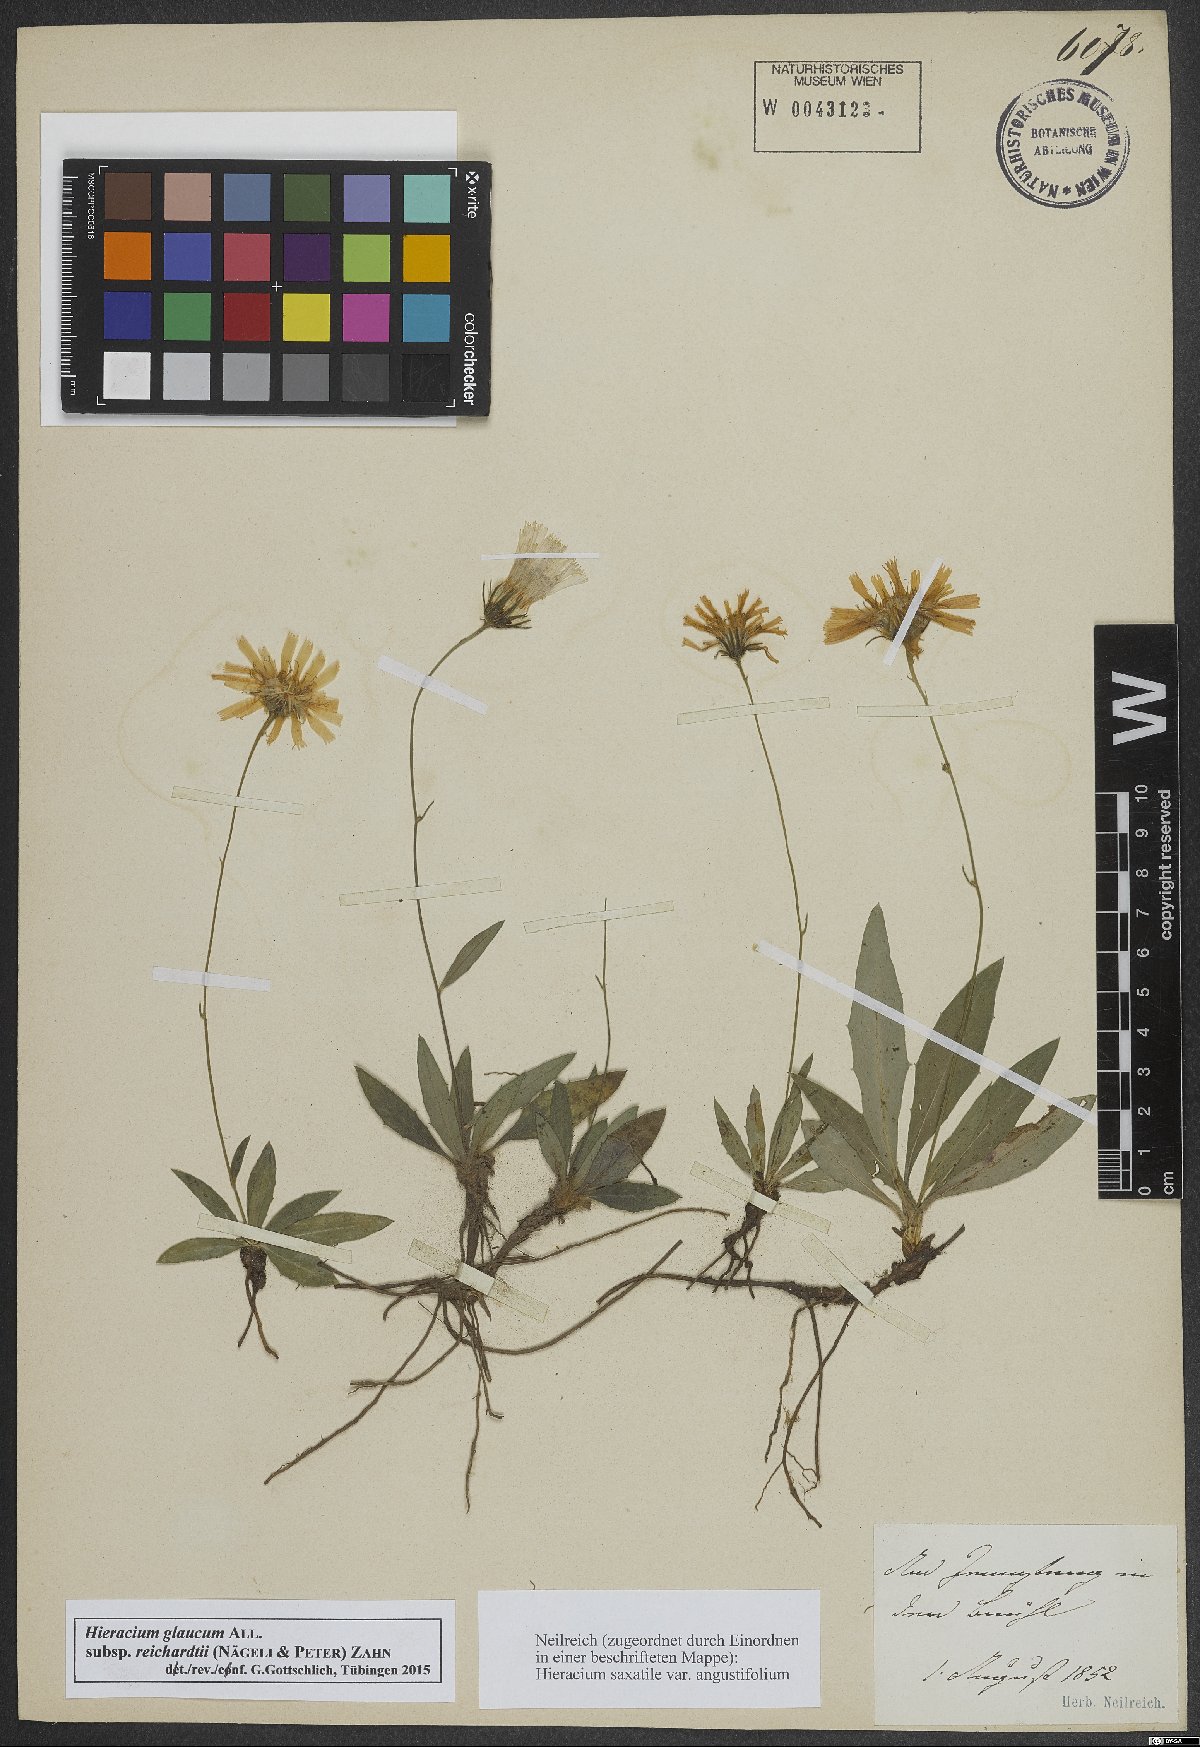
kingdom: Plantae
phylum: Tracheophyta
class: Magnoliopsida
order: Asterales
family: Asteraceae
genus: Hieracium
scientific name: Hieracium glaucum
